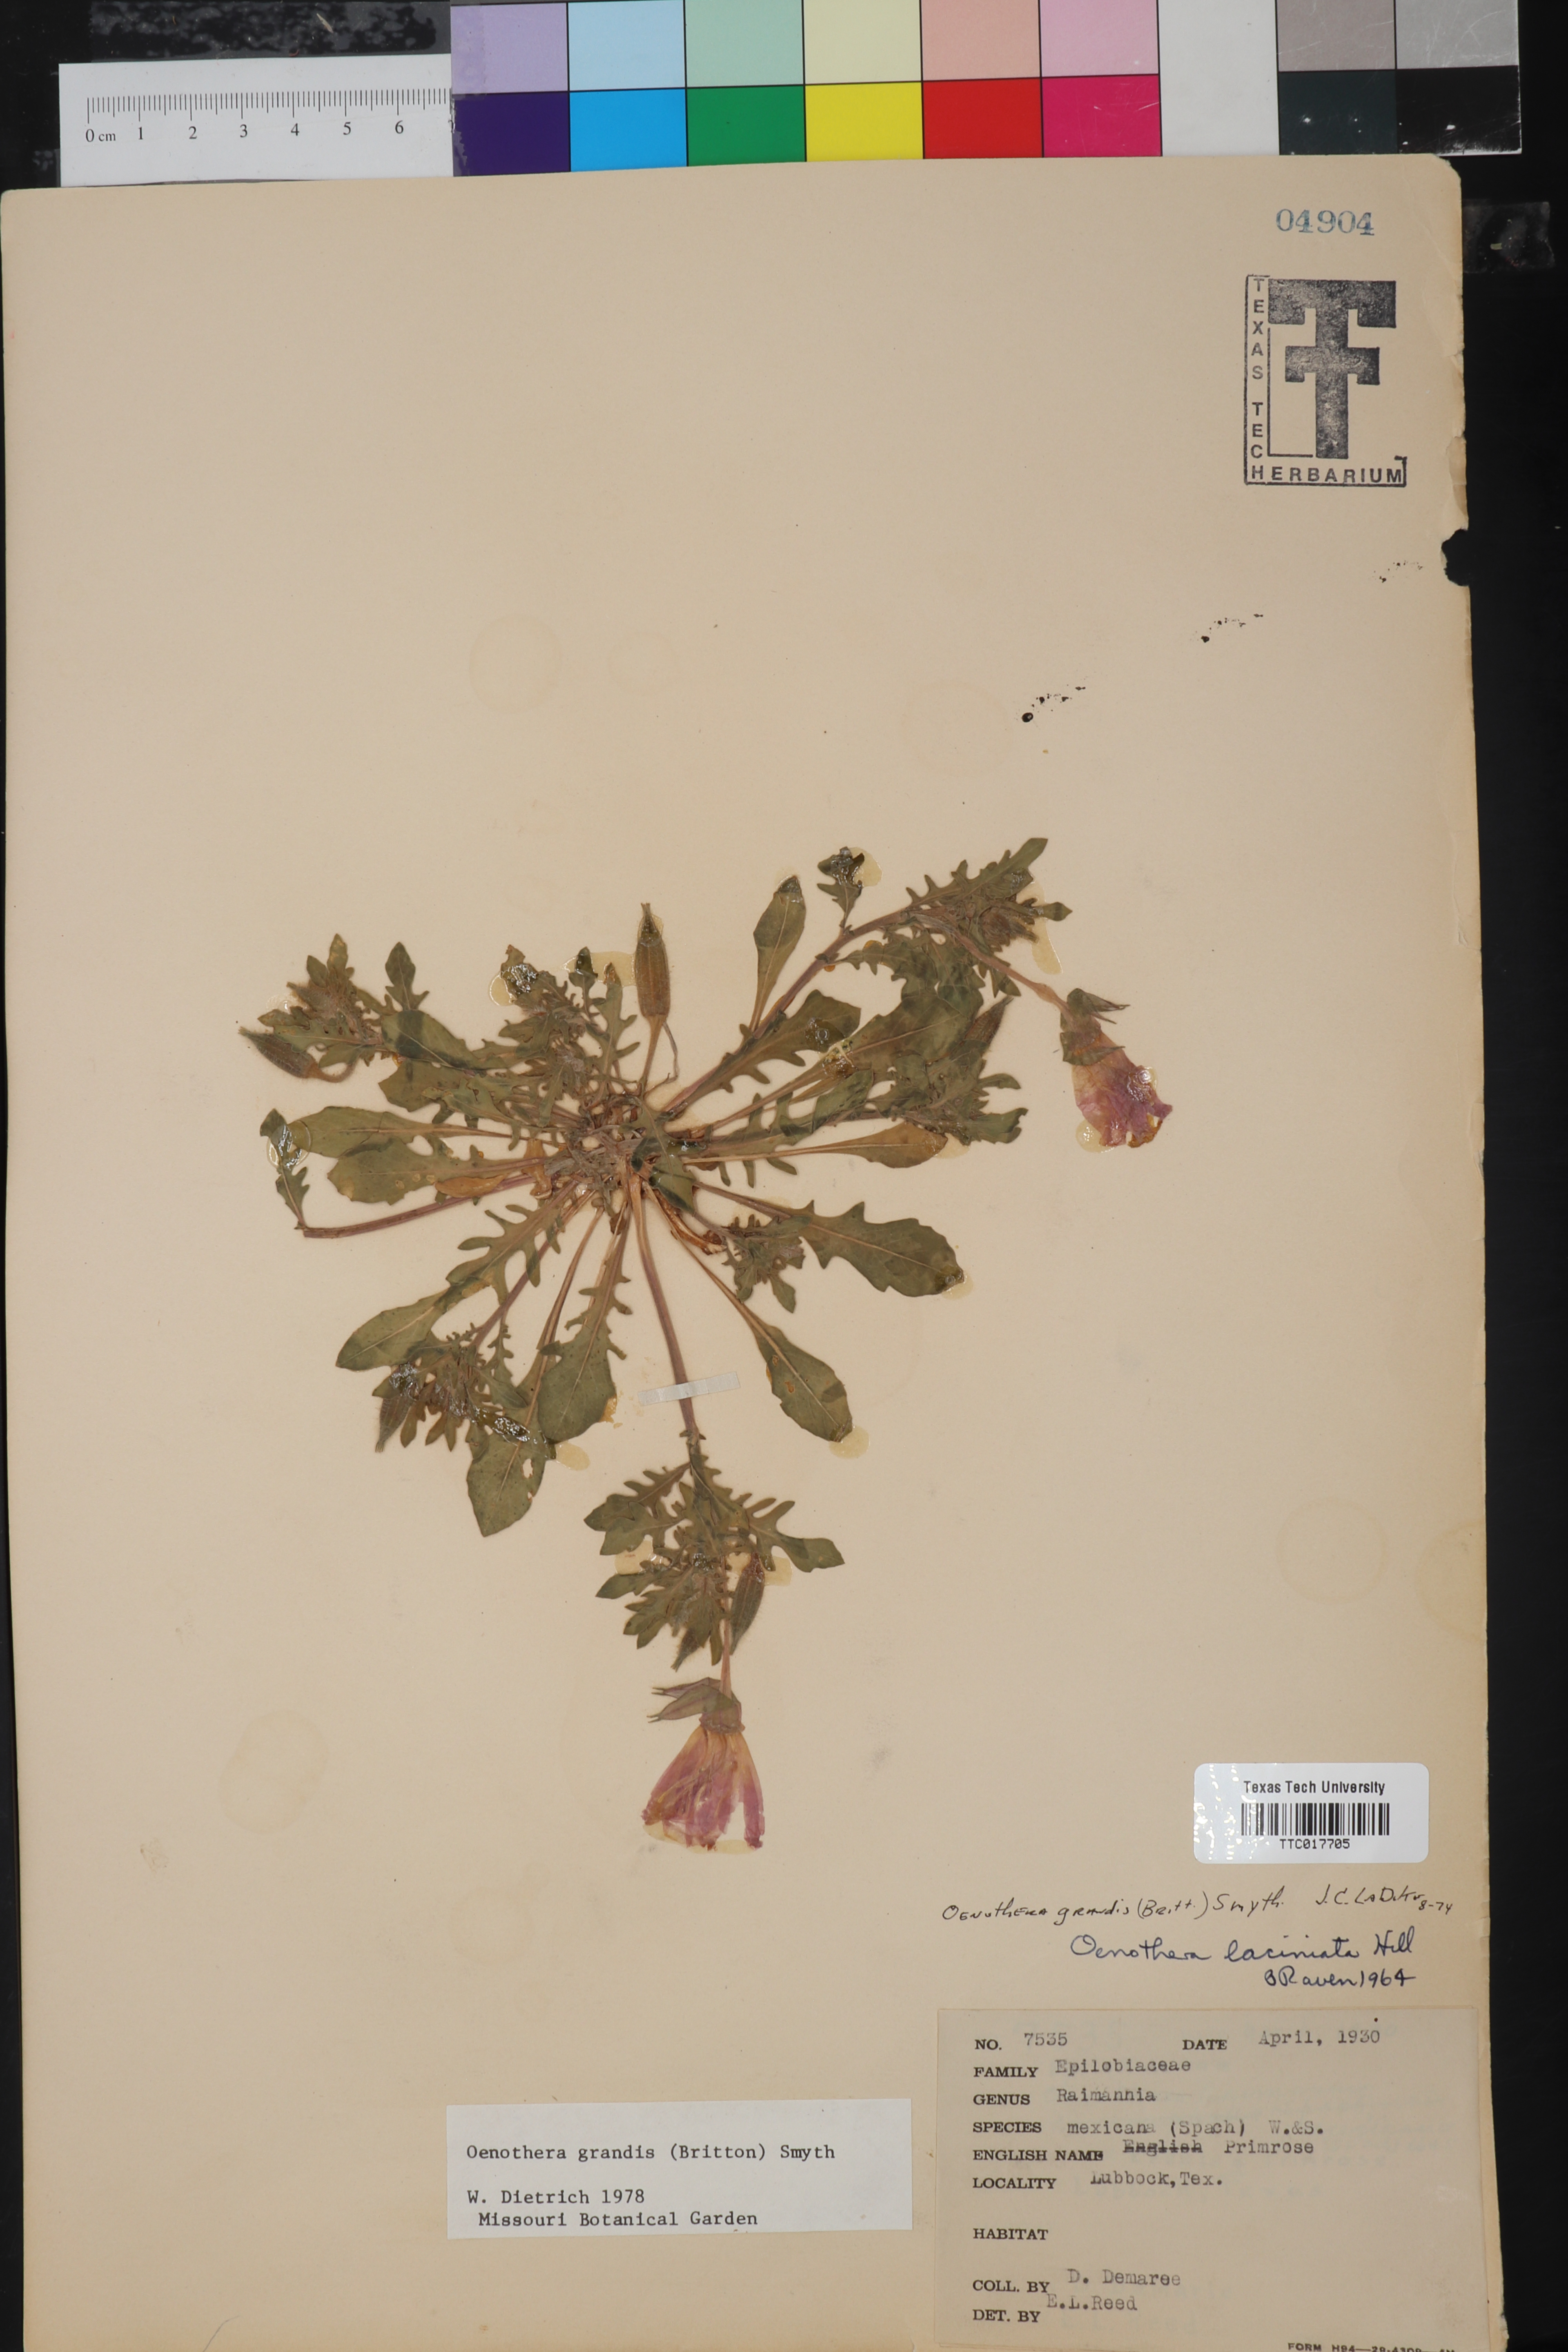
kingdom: Plantae
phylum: Tracheophyta
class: Magnoliopsida
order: Myrtales
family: Onagraceae
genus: Oenothera
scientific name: Oenothera grandis
